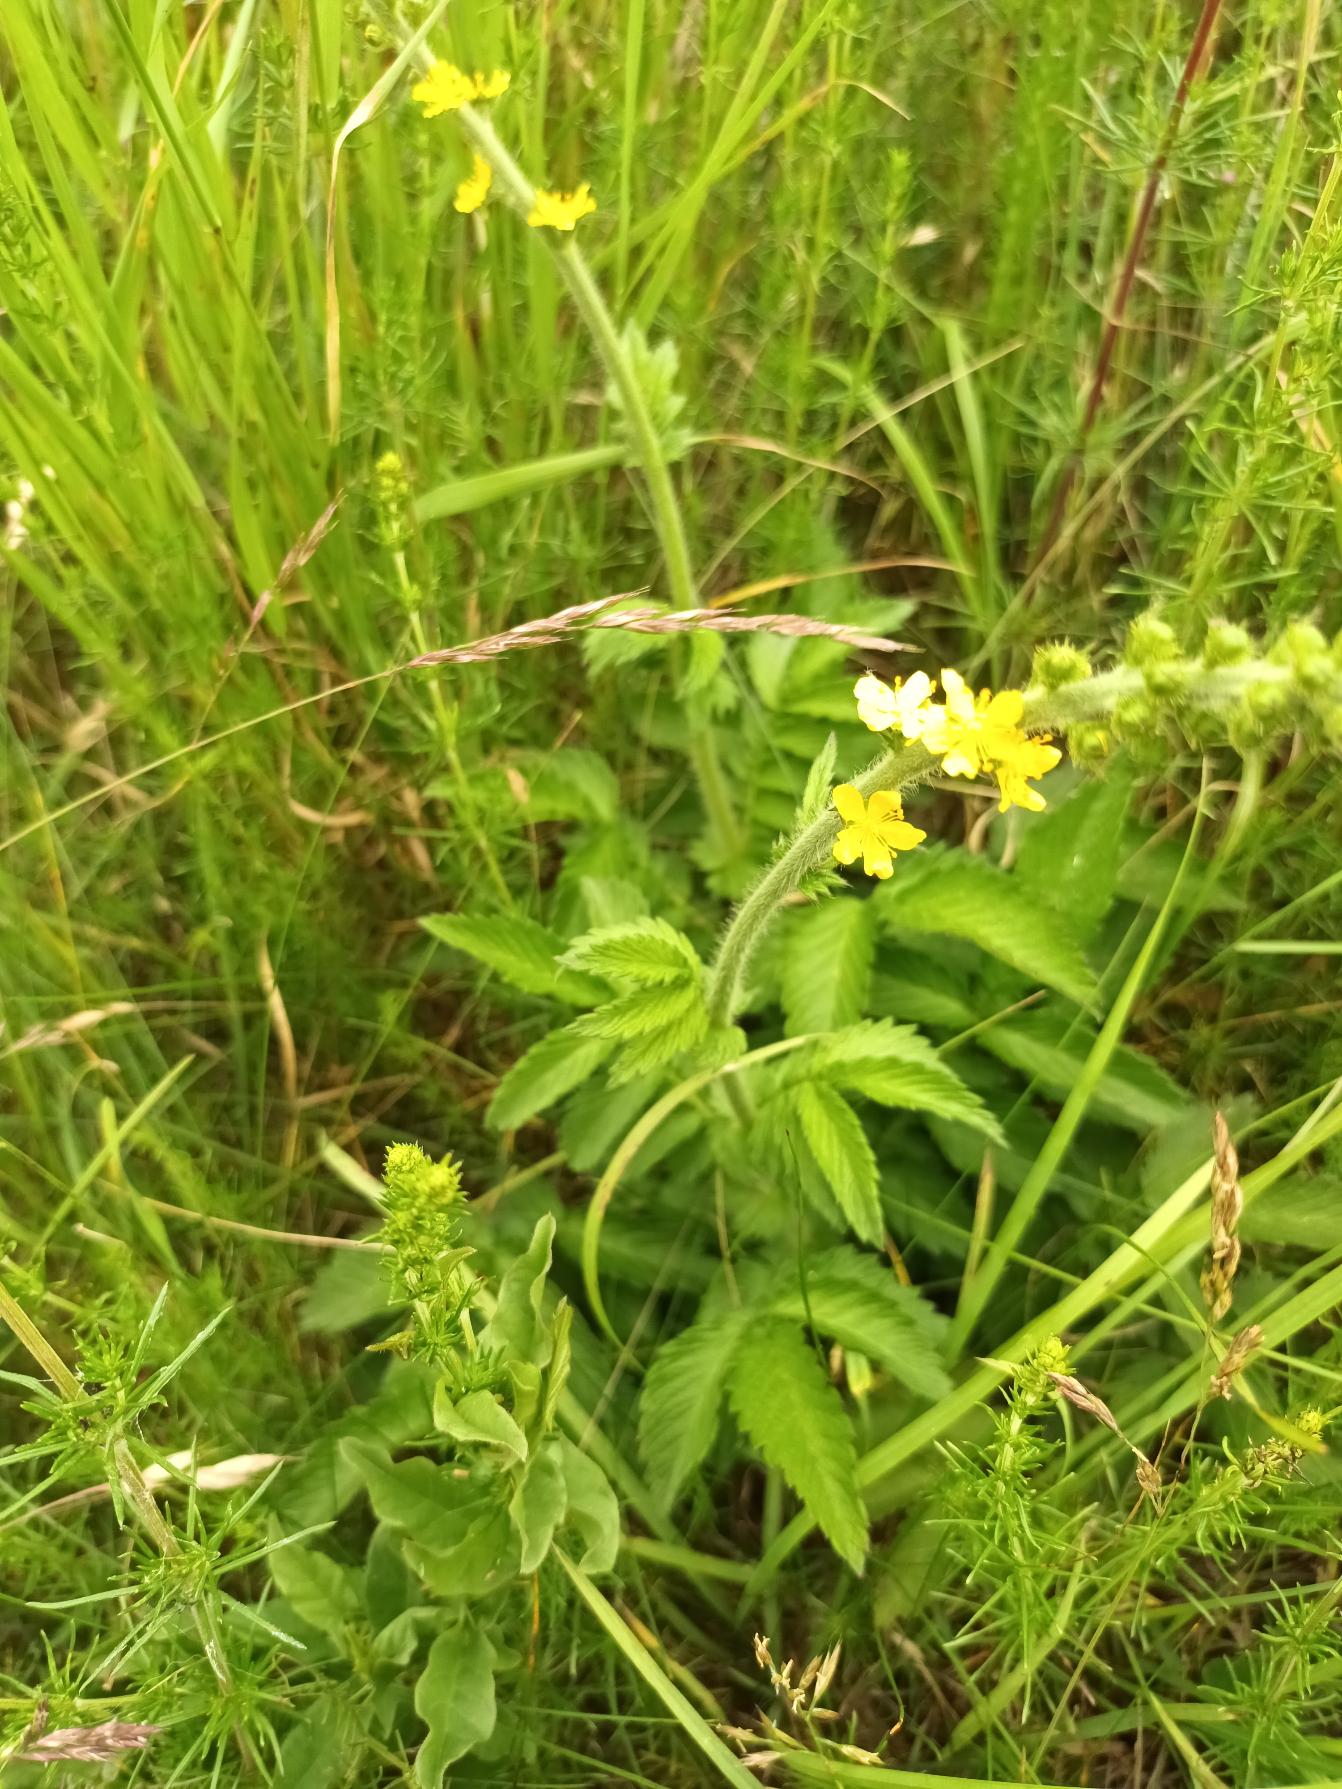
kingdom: Plantae
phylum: Tracheophyta
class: Magnoliopsida
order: Rosales
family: Rosaceae
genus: Agrimonia
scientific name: Agrimonia eupatoria
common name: Almindelig agermåne
